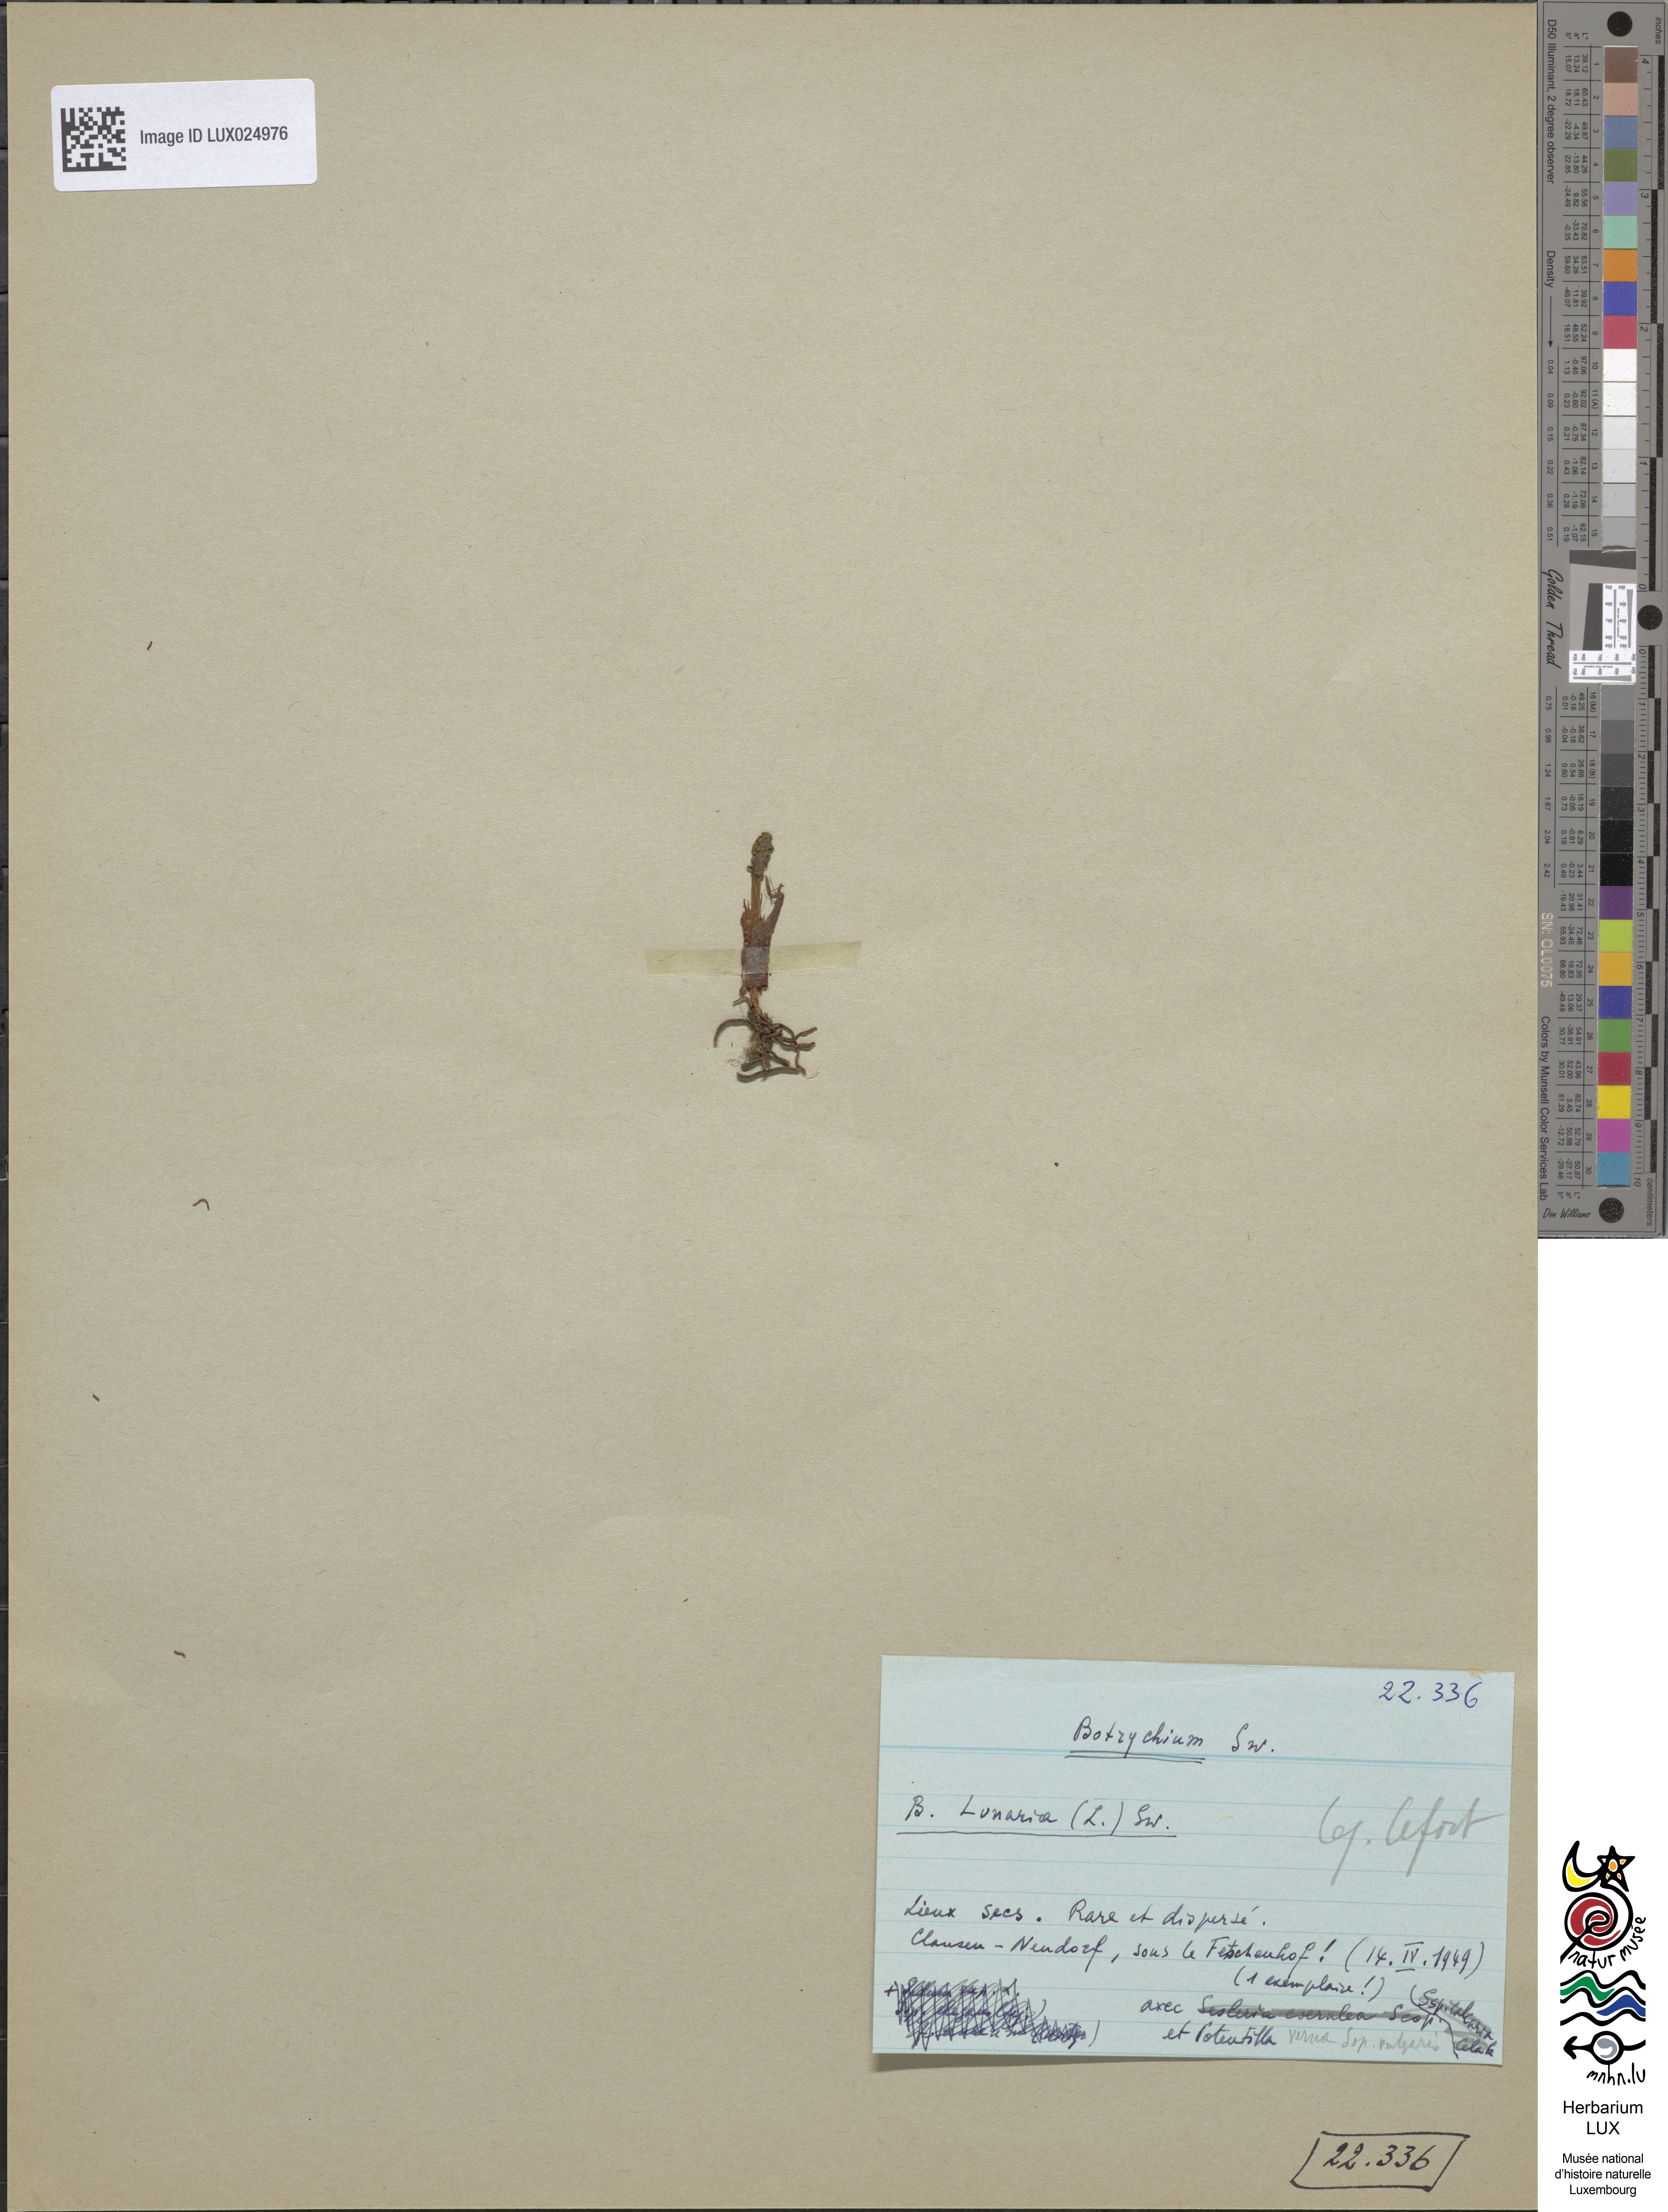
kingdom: Plantae
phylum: Tracheophyta
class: Polypodiopsida
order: Ophioglossales
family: Ophioglossaceae
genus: Botrychium
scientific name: Botrychium lunaria
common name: Moonwort
